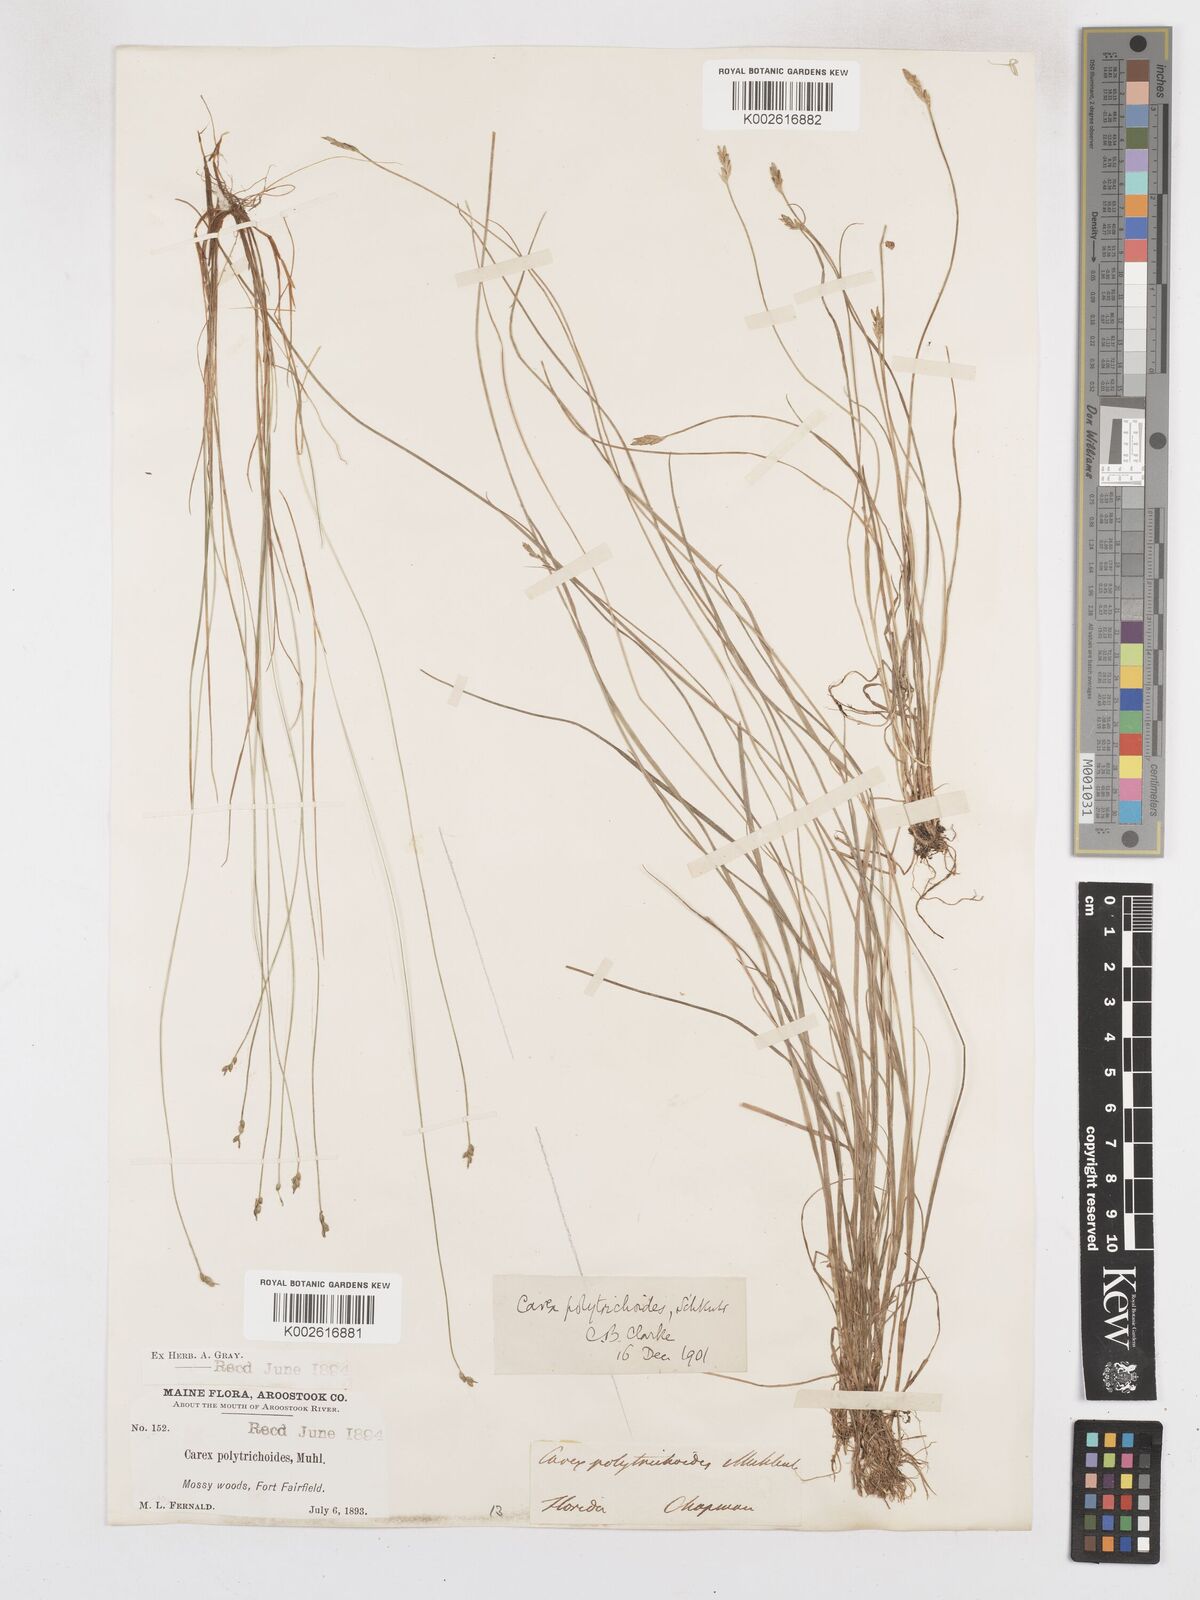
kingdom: Plantae
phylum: Tracheophyta
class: Liliopsida
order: Poales
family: Cyperaceae
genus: Carex
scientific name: Carex leptalea
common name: Bristly-stalked sedge
